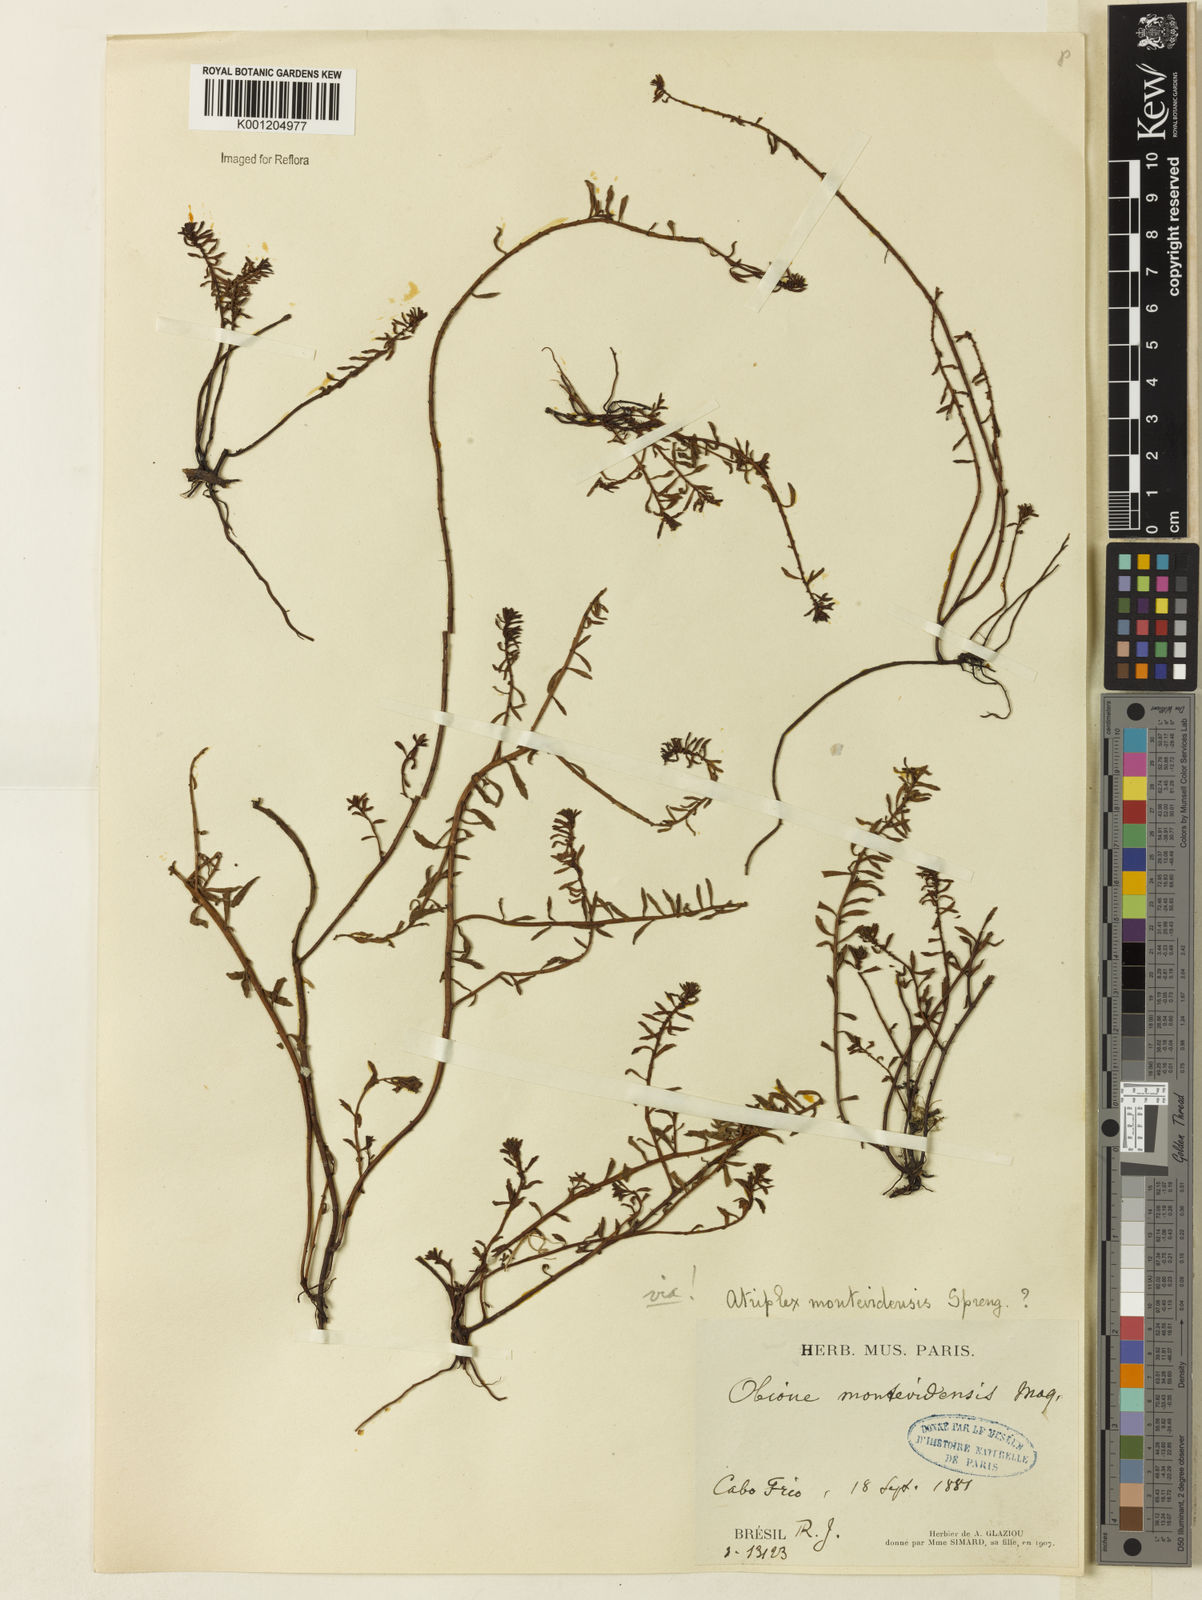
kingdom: Plantae
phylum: Tracheophyta
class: Magnoliopsida
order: Caryophyllales
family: Amaranthaceae
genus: Atriplex
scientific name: Atriplex montevidensis
